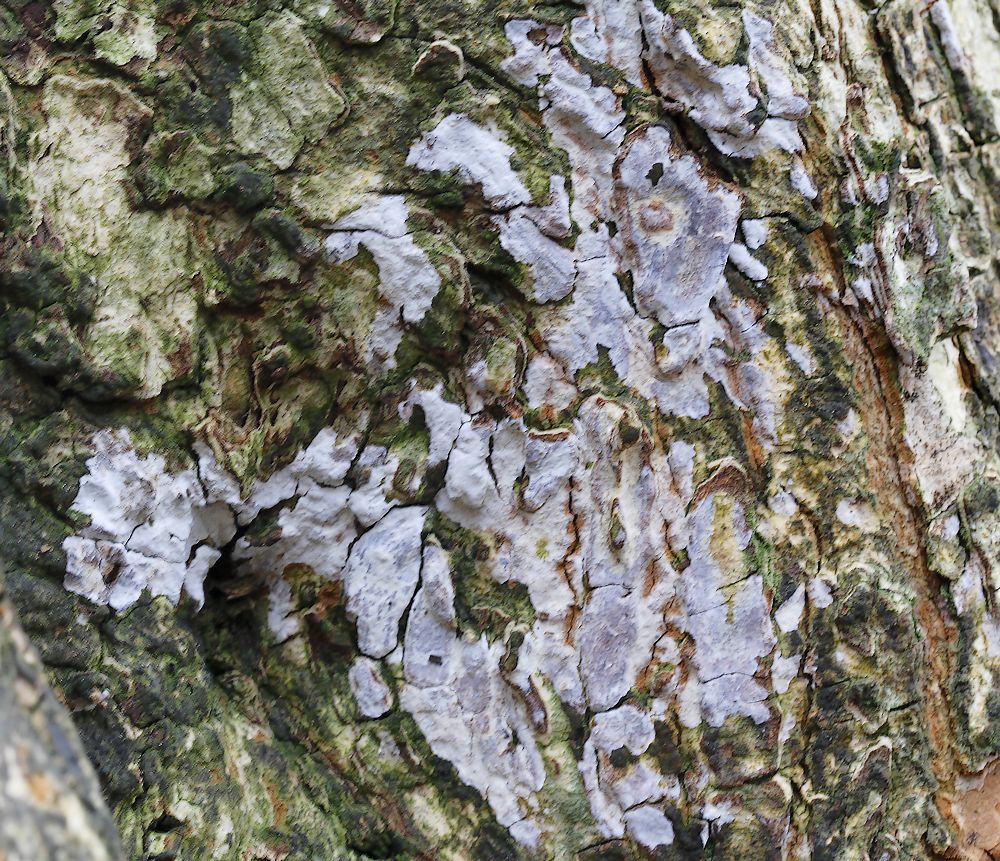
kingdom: Fungi
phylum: Basidiomycota
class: Agaricomycetes
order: Agaricales
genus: Dendrothele
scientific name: Dendrothele acerina
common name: navr-kalkplet
